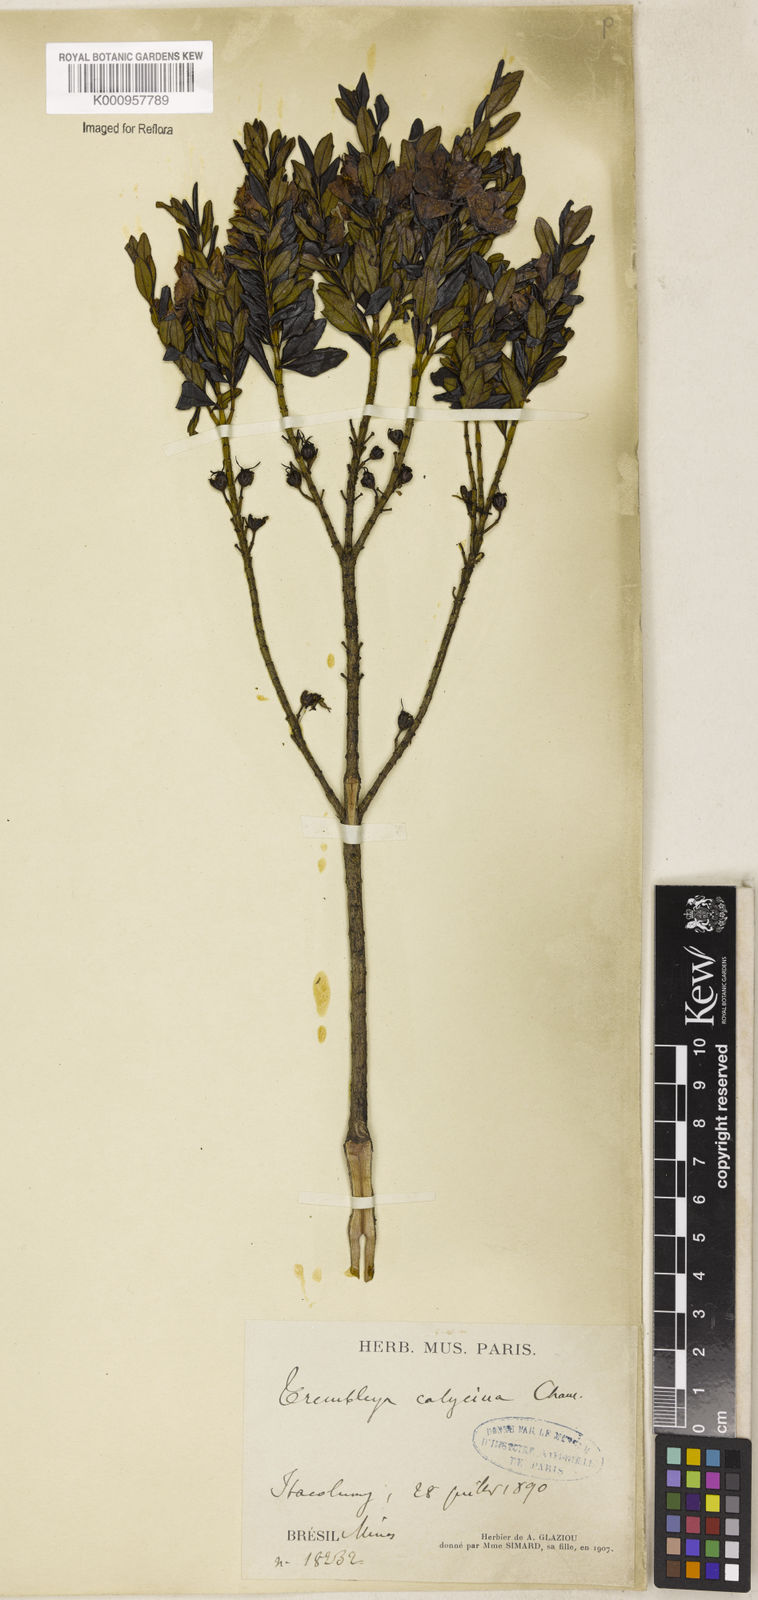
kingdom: Plantae
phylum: Tracheophyta
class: Magnoliopsida
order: Myrtales
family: Melastomataceae
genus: Microlicia
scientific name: Microlicia calycina
